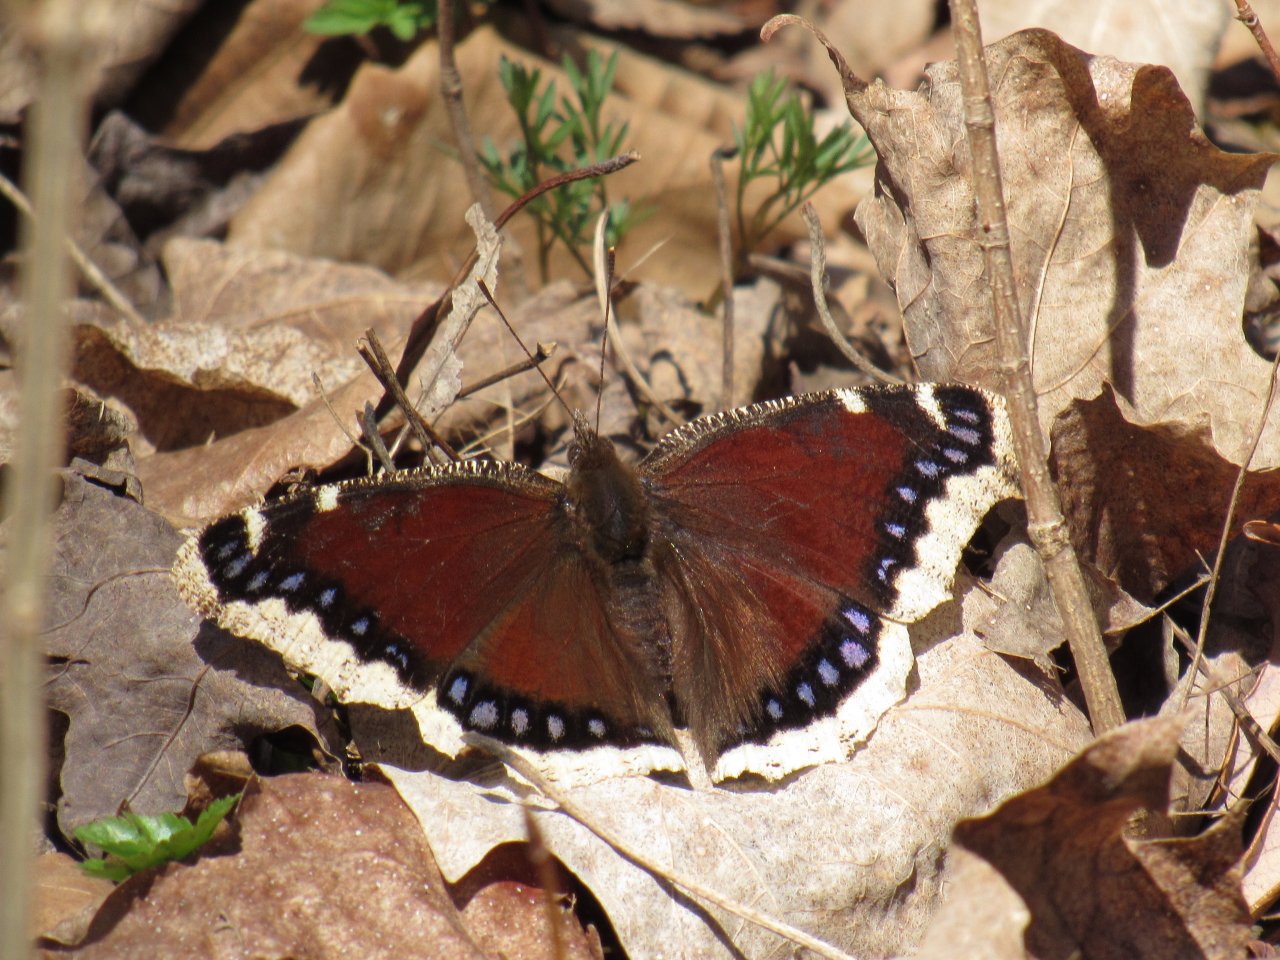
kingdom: Animalia
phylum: Arthropoda
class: Insecta
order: Lepidoptera
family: Nymphalidae
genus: Nymphalis
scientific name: Nymphalis antiopa
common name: Mourning Cloak
